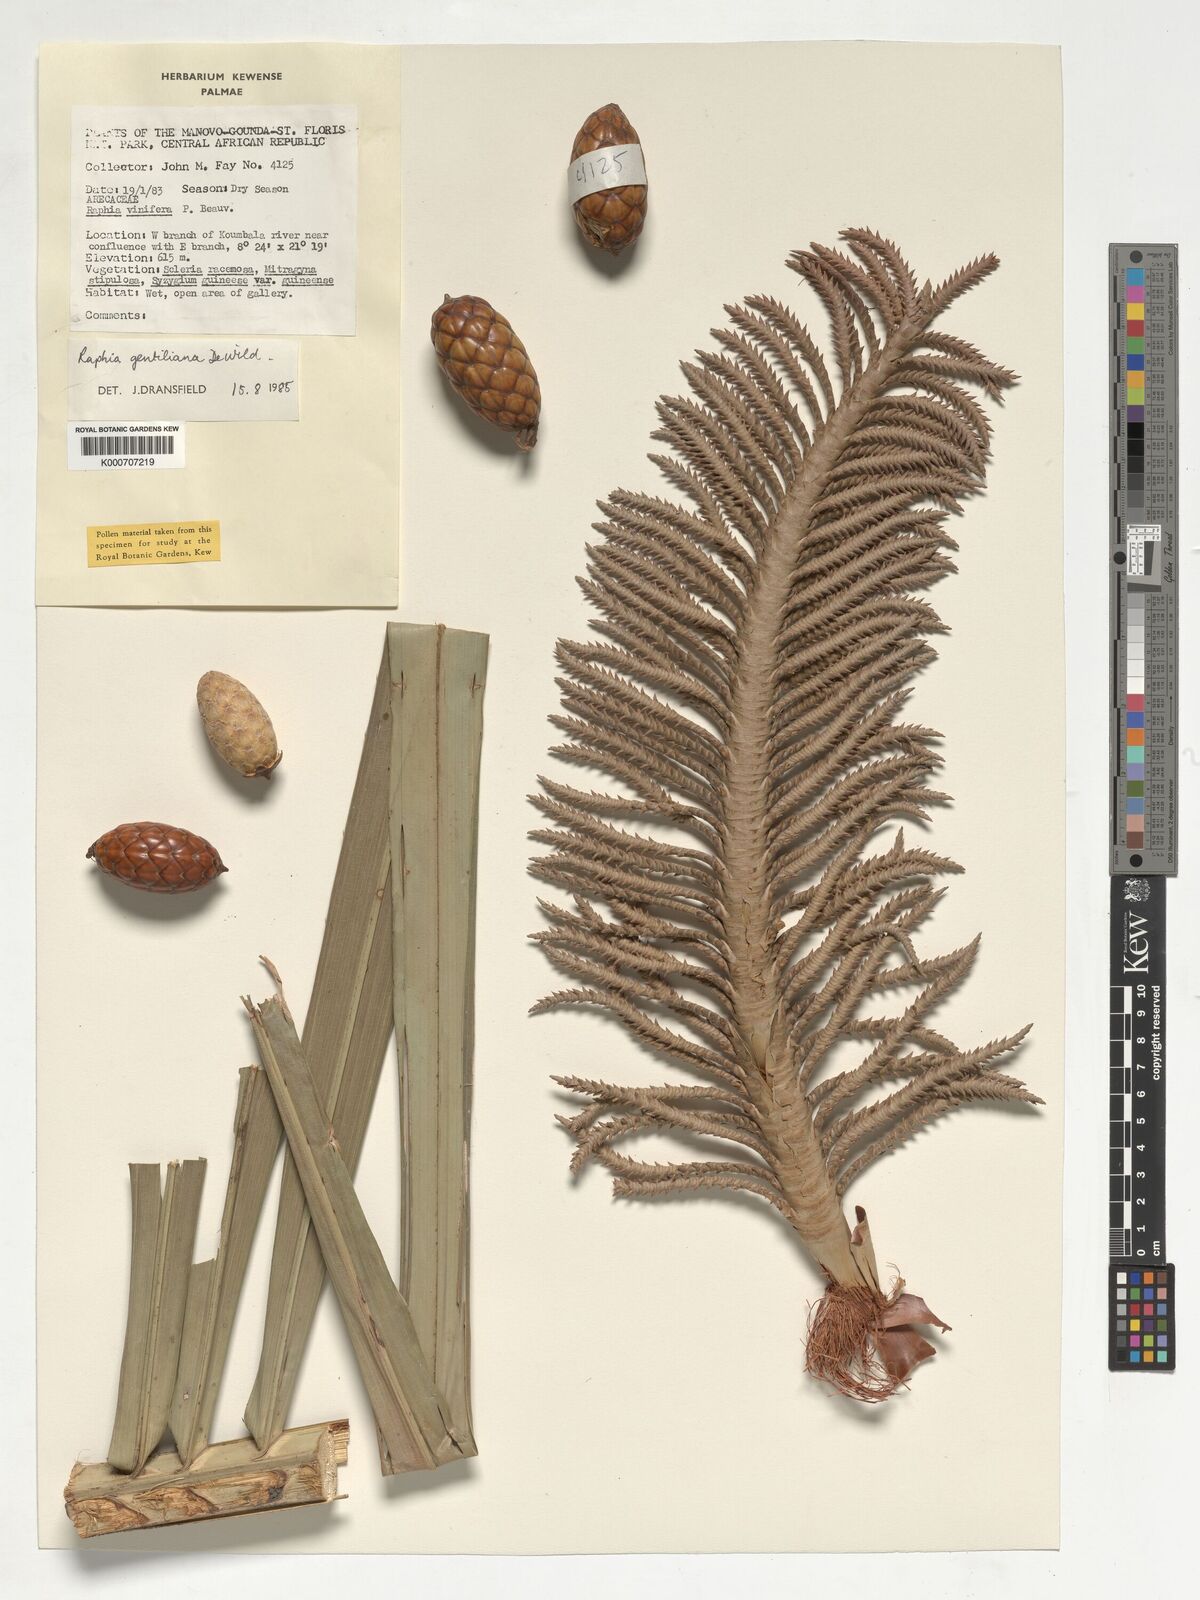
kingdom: Plantae
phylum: Tracheophyta
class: Liliopsida
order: Arecales
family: Arecaceae
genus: Raphia
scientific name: Raphia gentiliana
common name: Raphia palm
